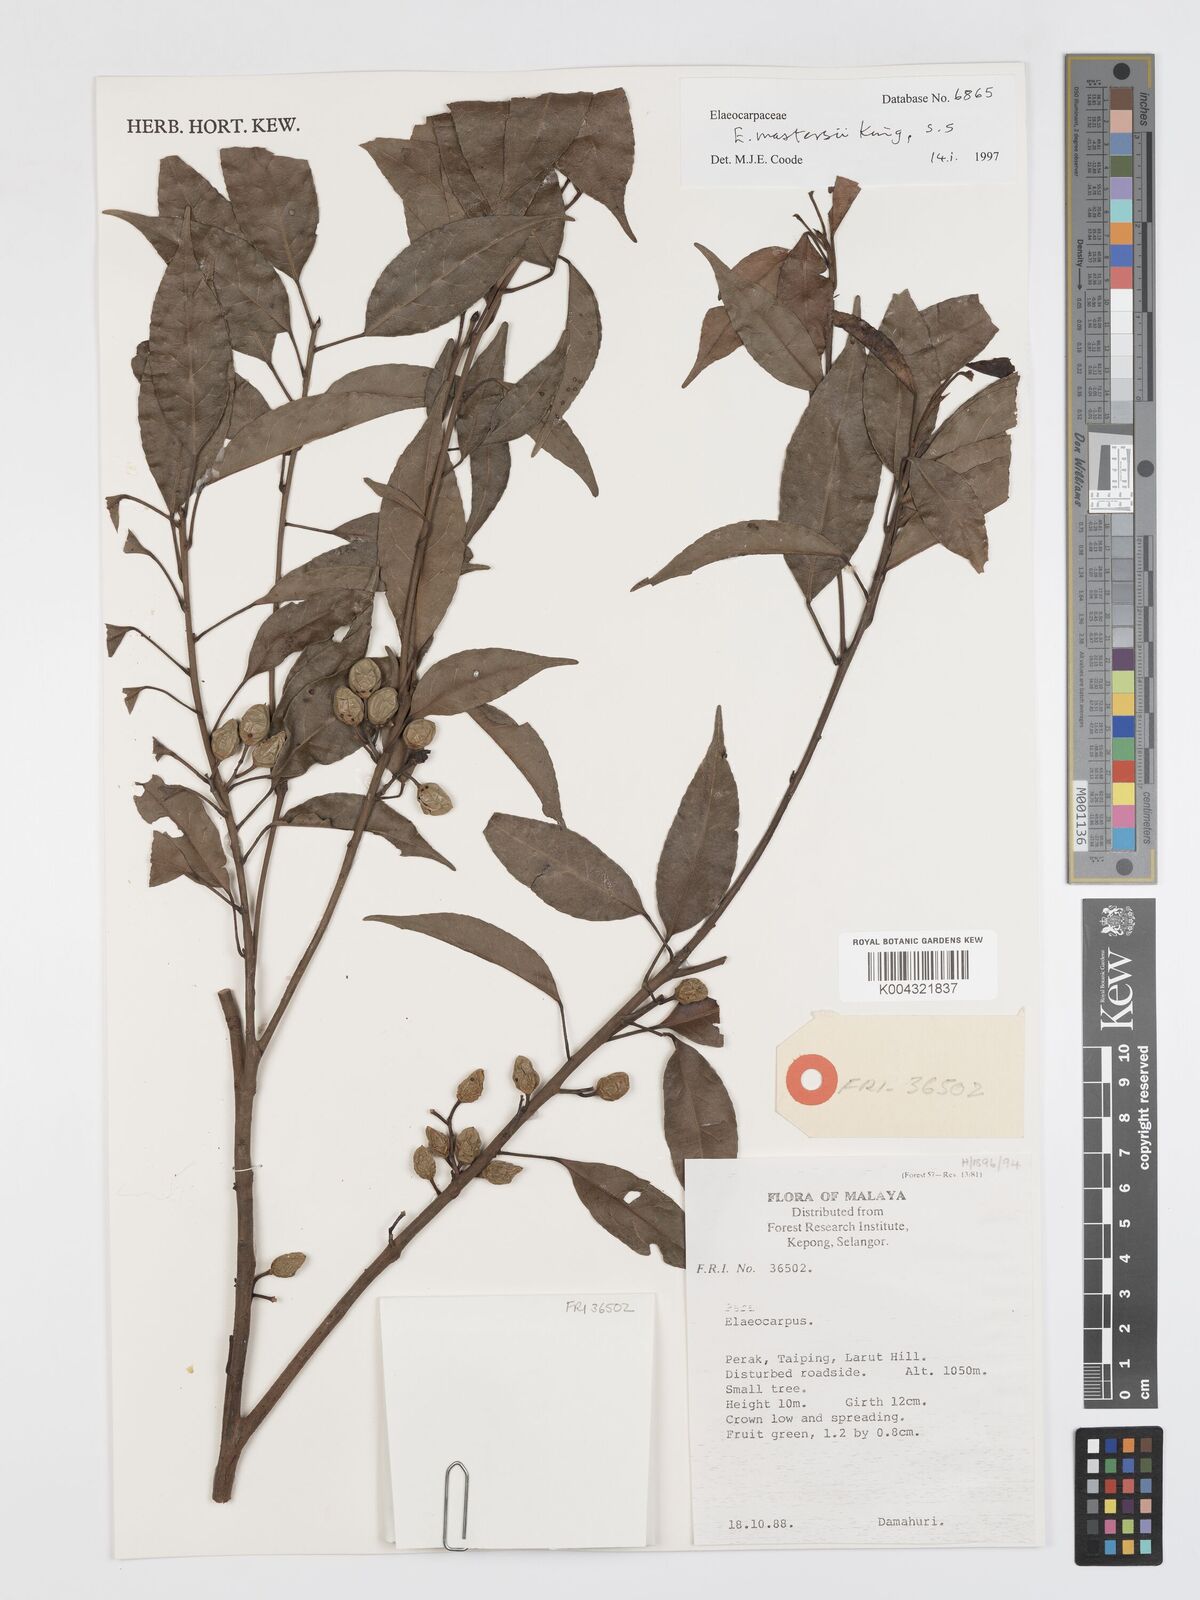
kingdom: Plantae
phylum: Tracheophyta
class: Magnoliopsida
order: Oxalidales
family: Elaeocarpaceae
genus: Elaeocarpus
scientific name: Elaeocarpus mastersii
